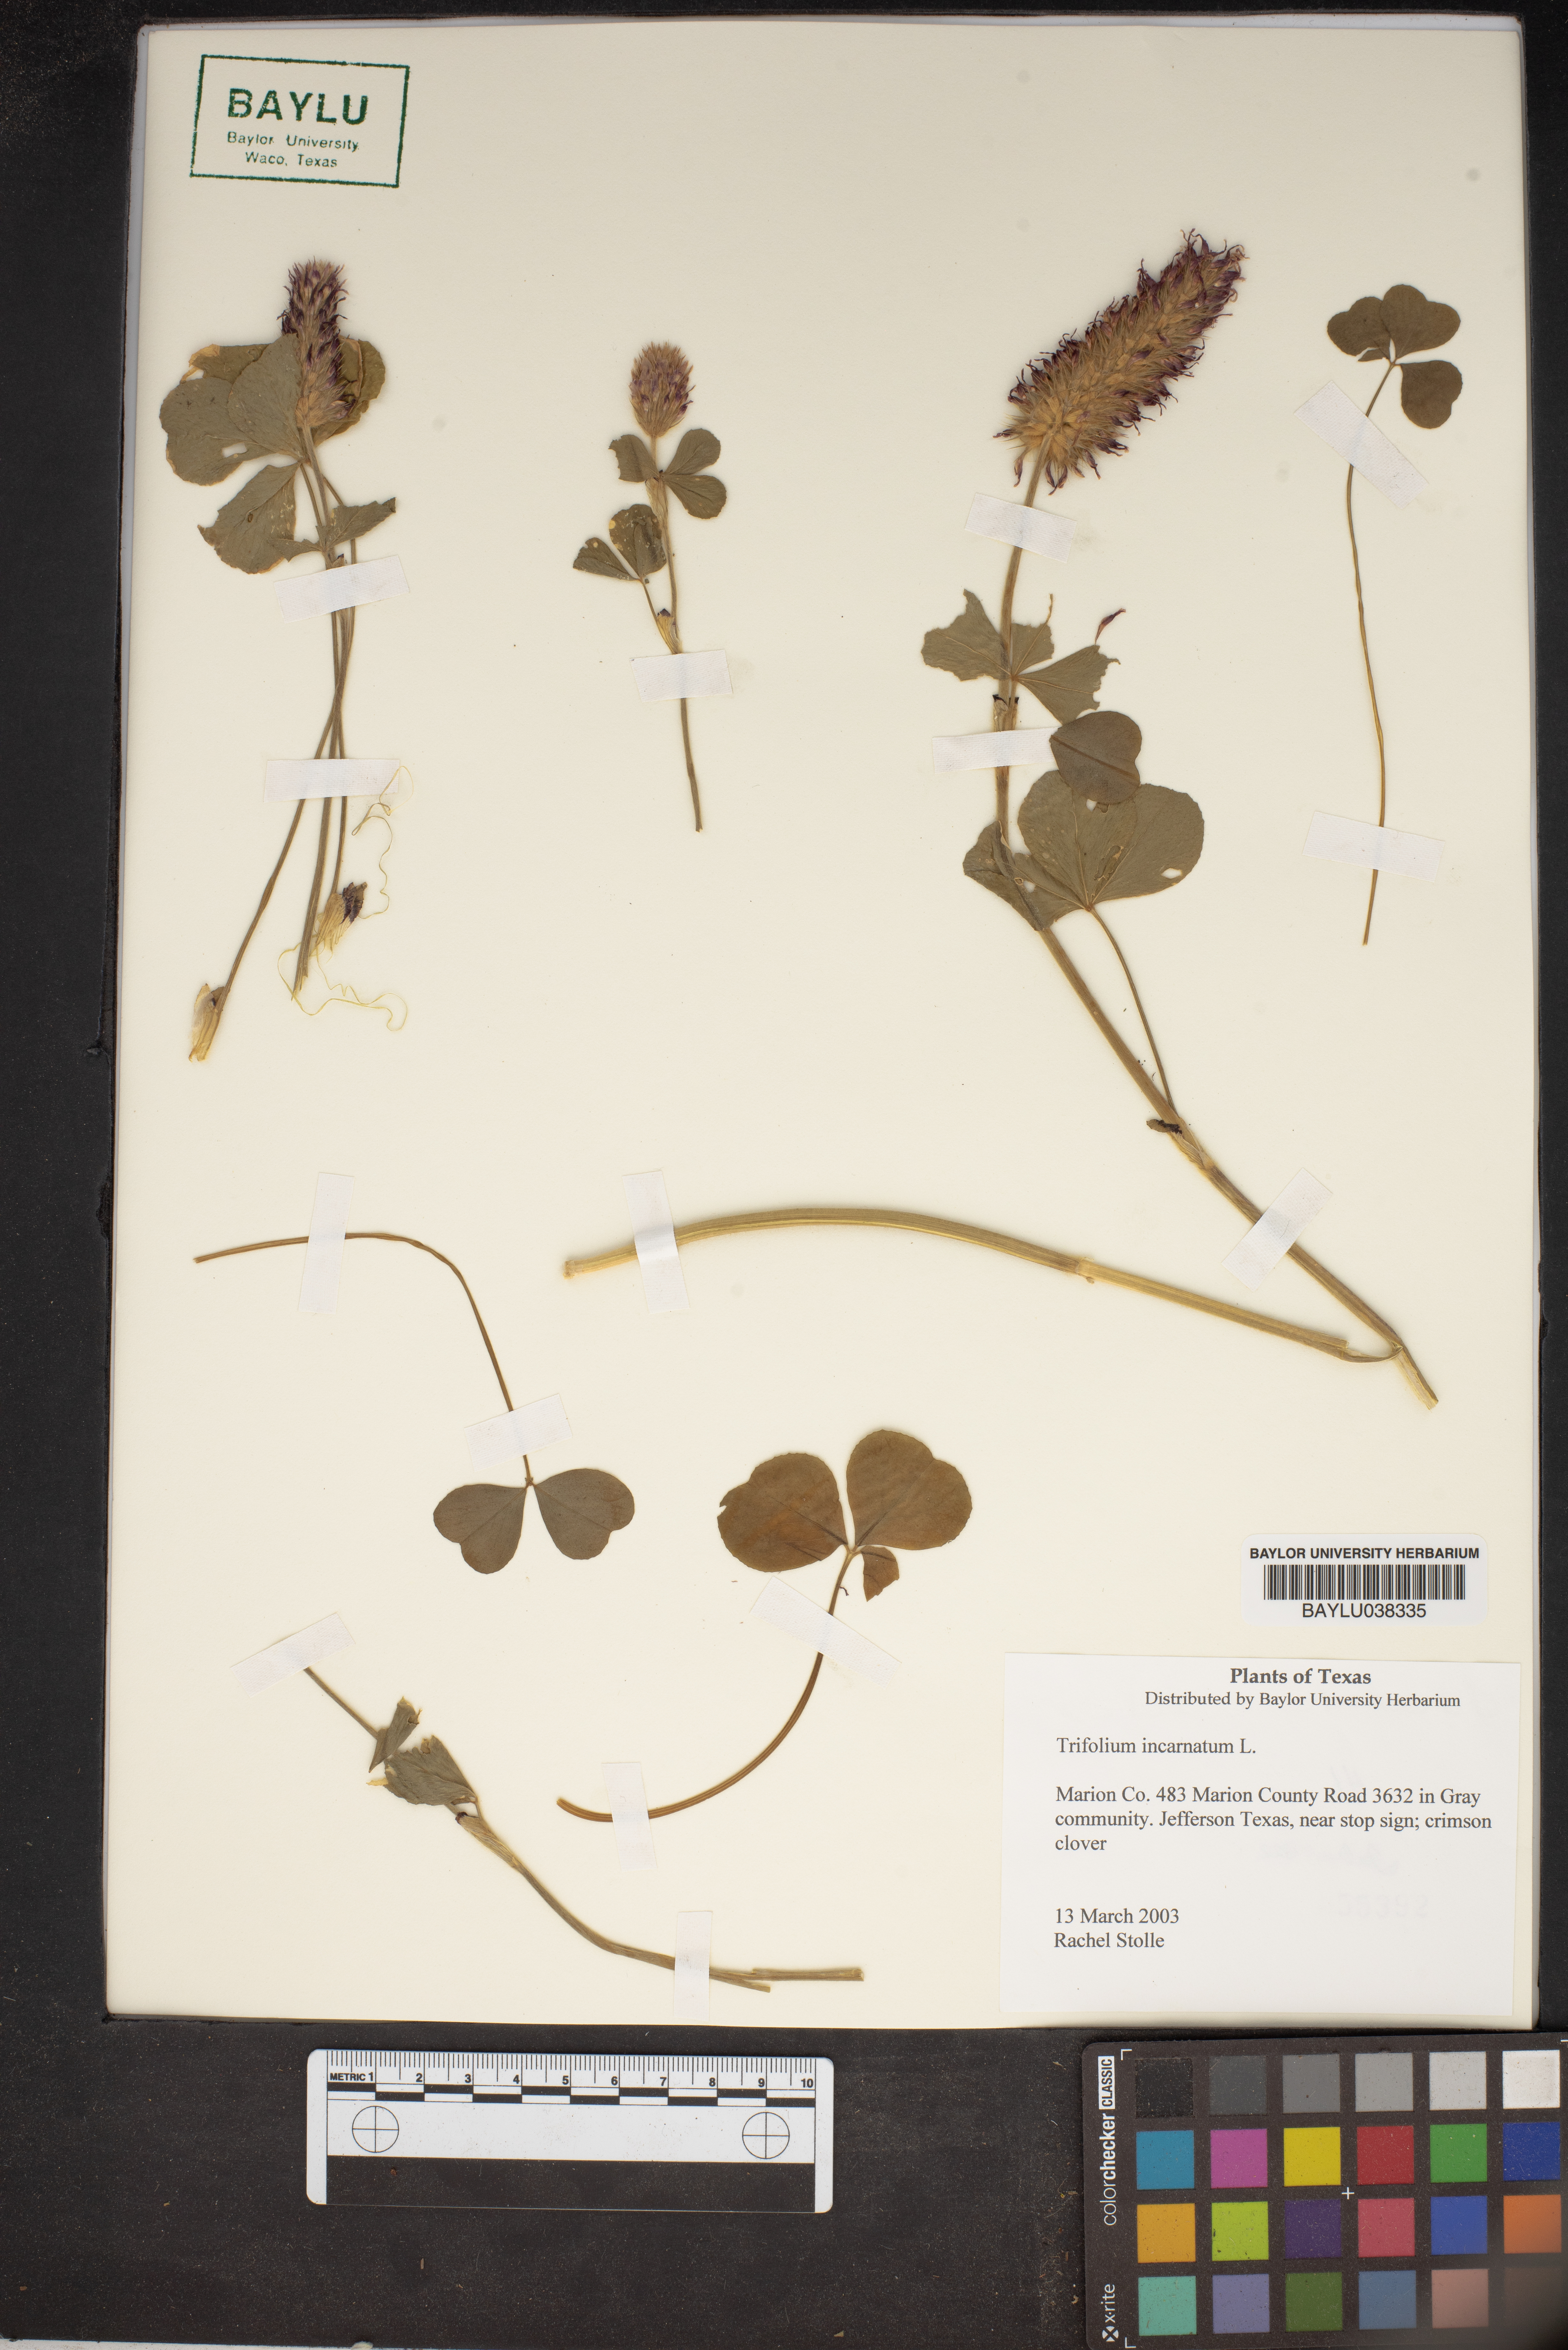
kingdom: Plantae
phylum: Tracheophyta
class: Magnoliopsida
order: Fabales
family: Fabaceae
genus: Trifolium
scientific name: Trifolium incarnatum
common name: Crimson clover
